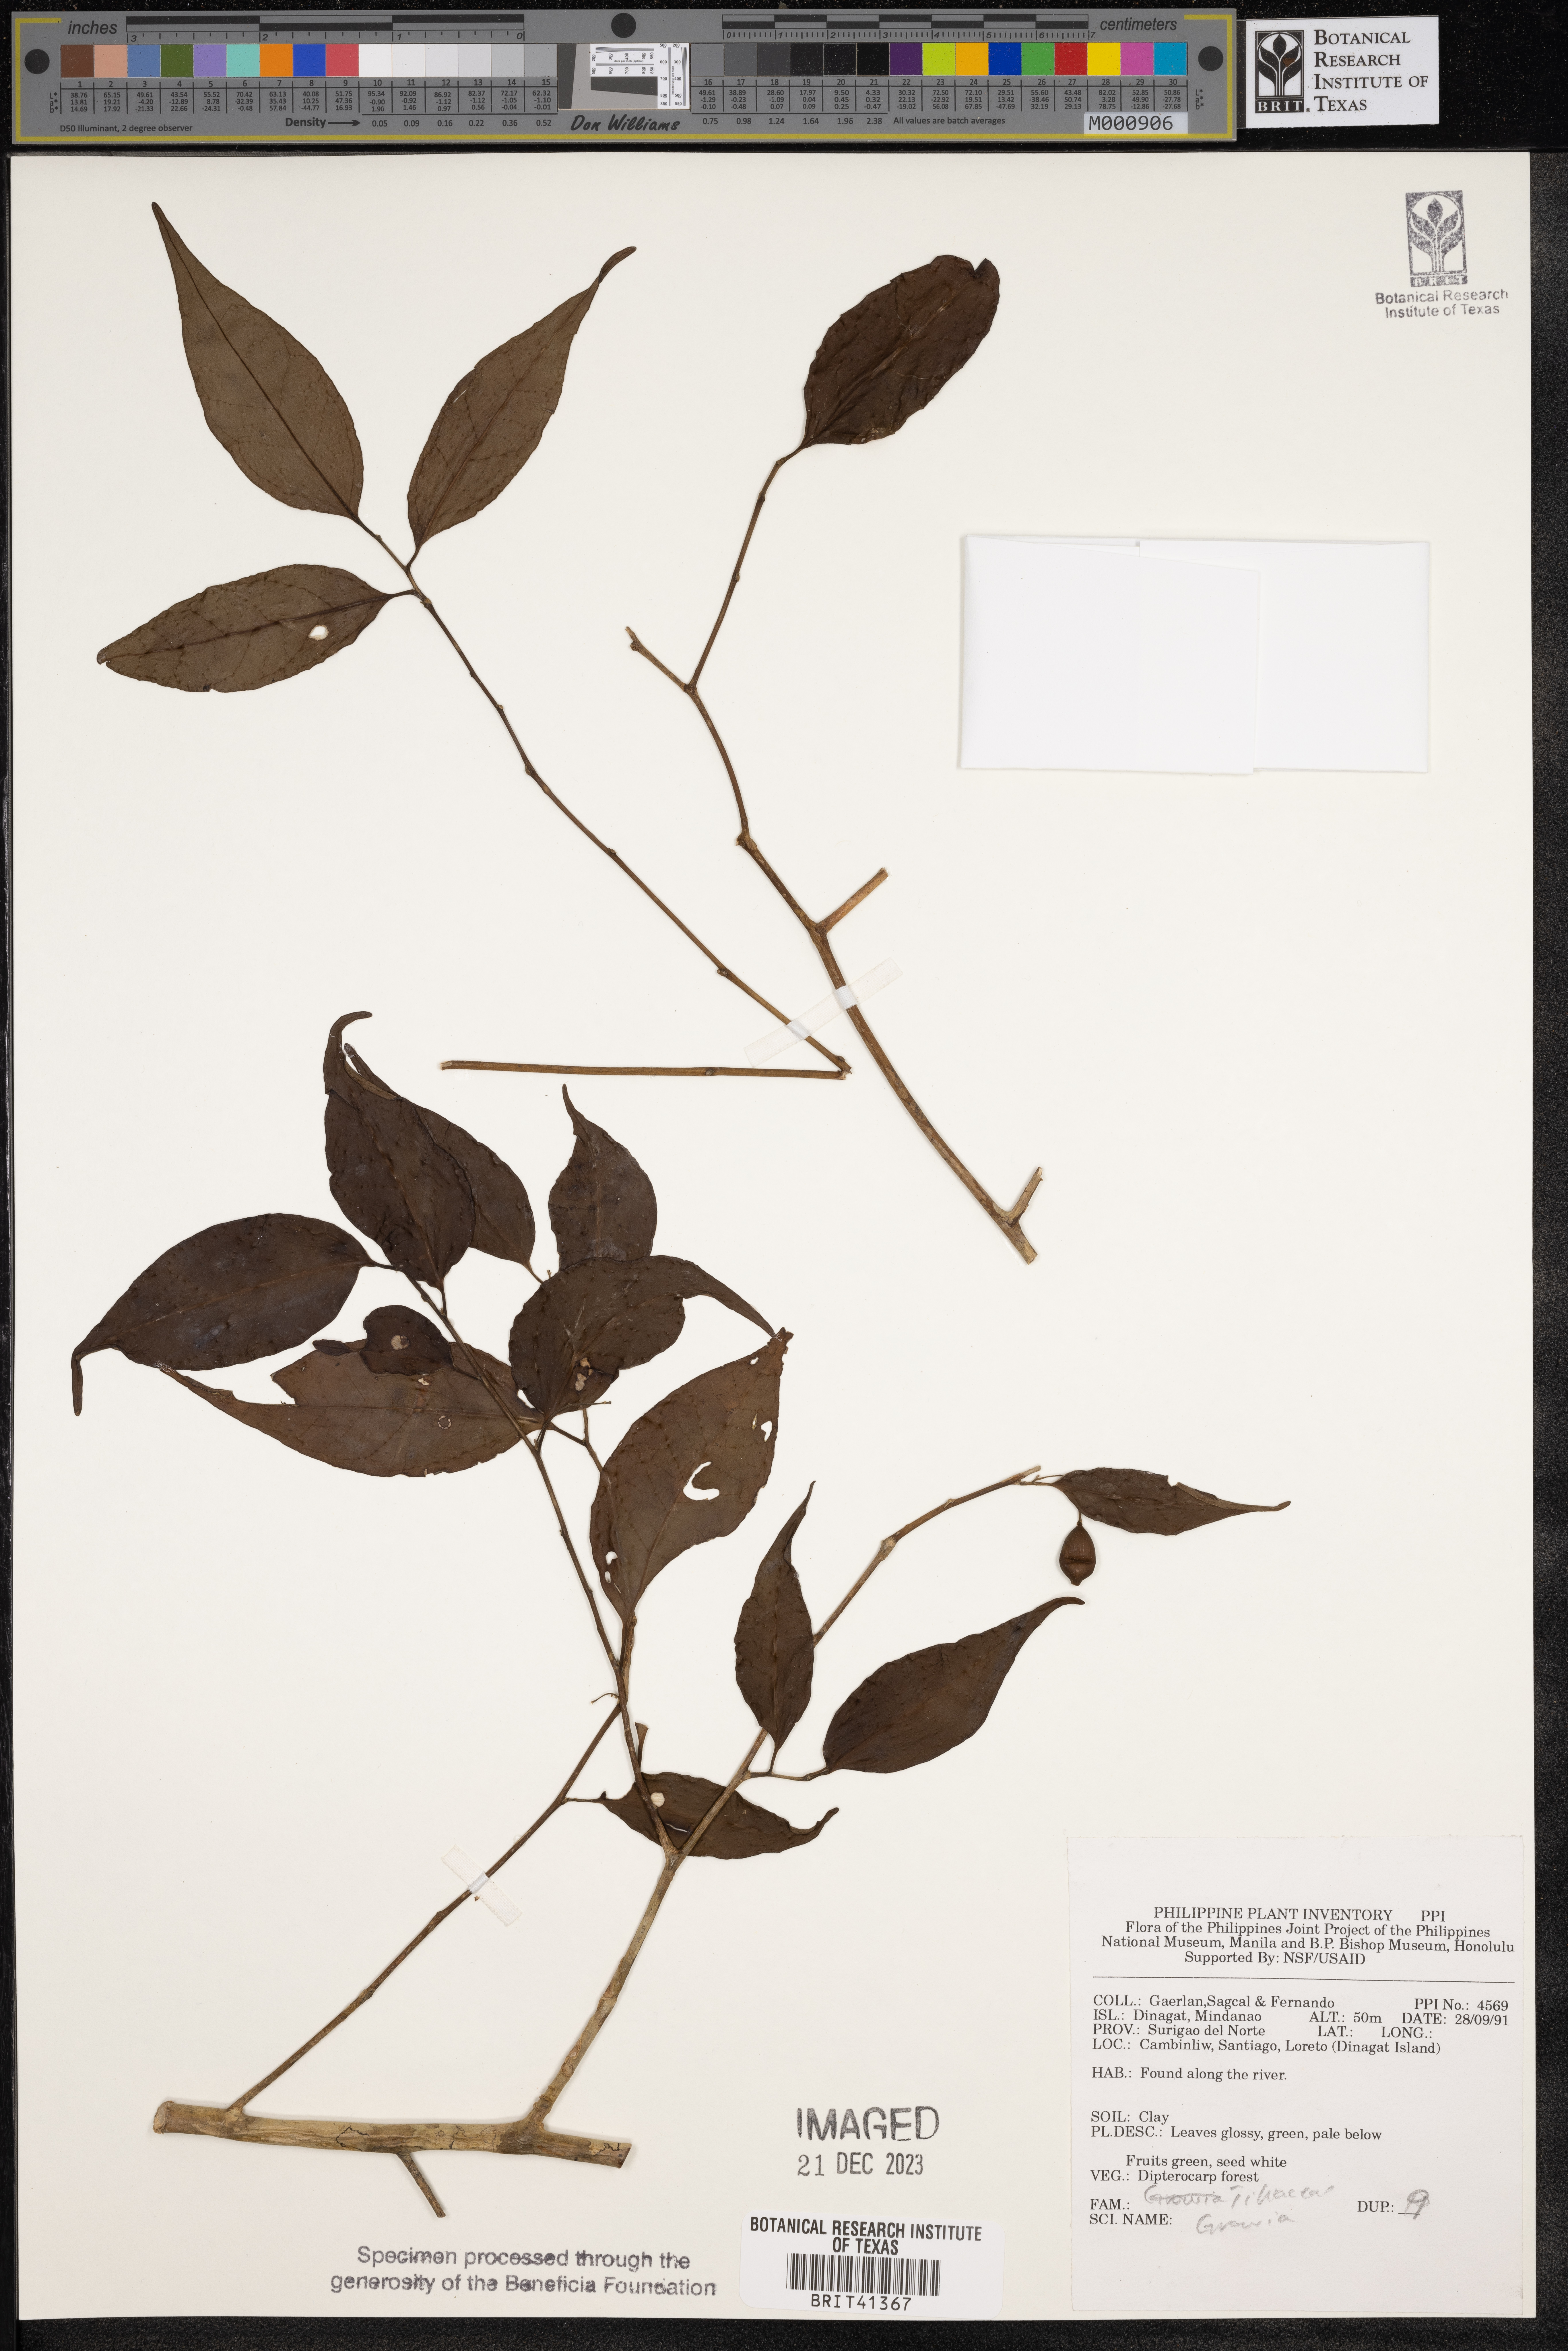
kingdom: Plantae
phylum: Tracheophyta
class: Magnoliopsida
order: Malvales
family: Malvaceae
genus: Grewia
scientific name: Grewia
